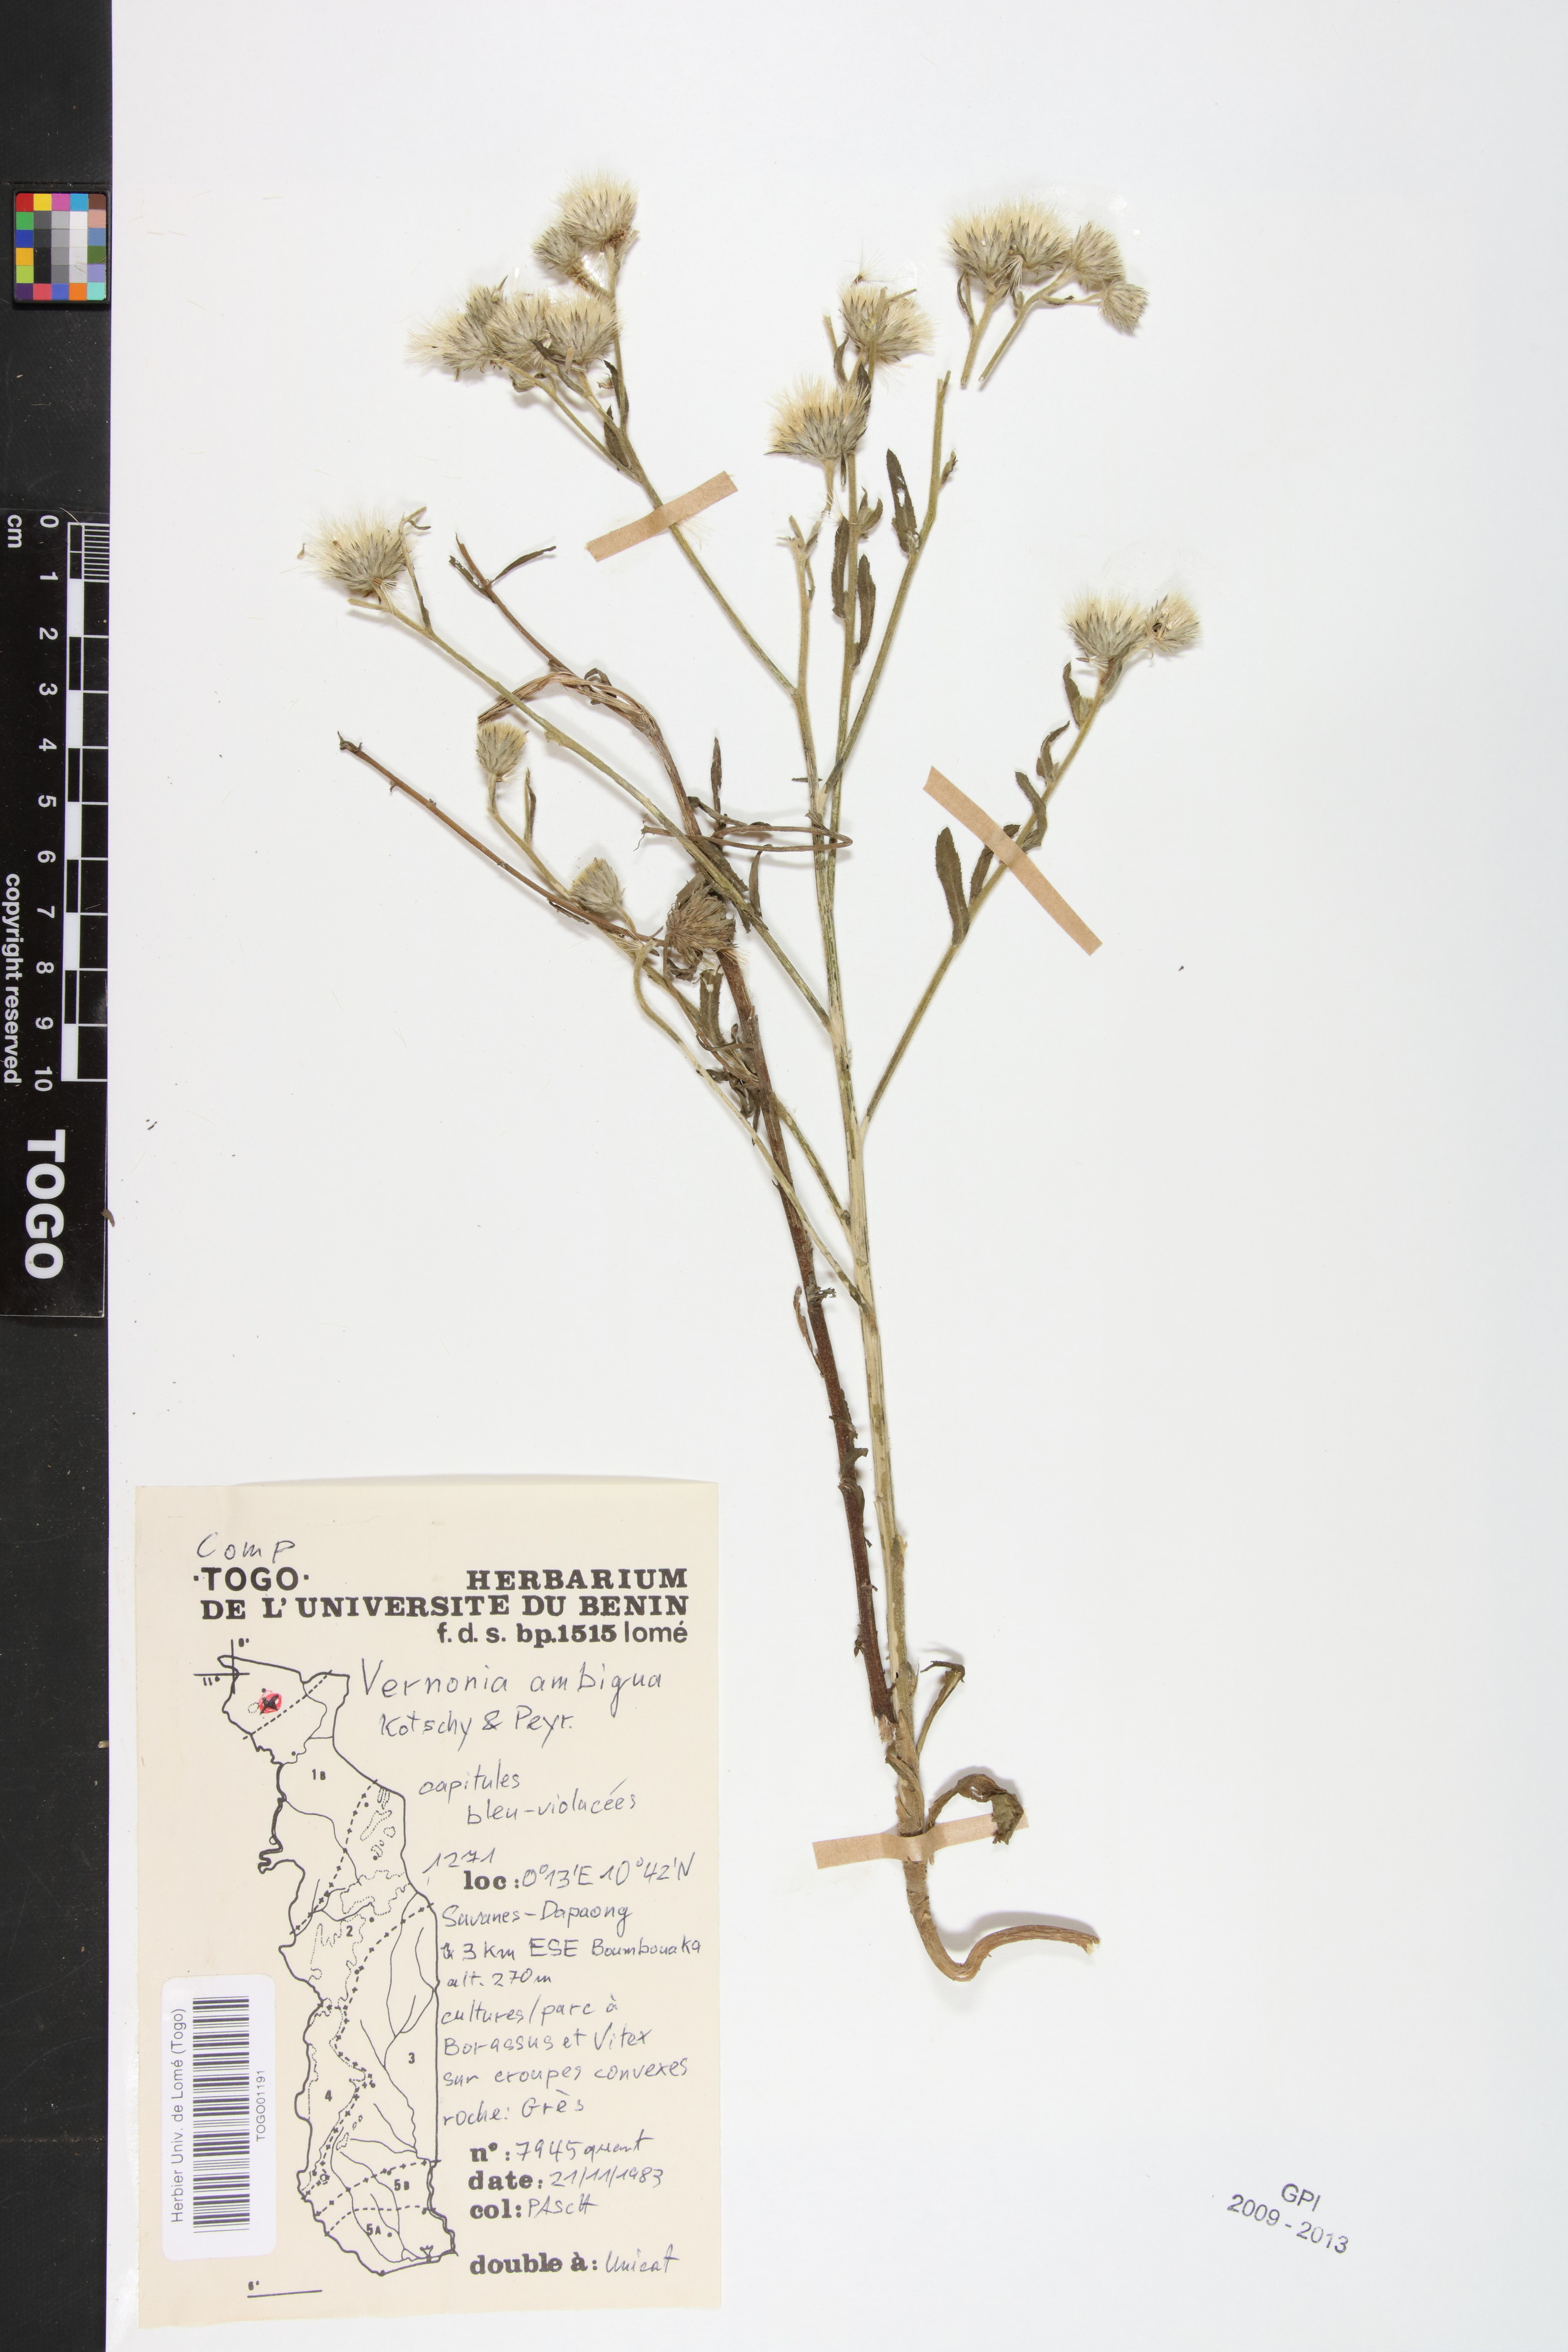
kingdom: Plantae
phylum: Tracheophyta
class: Magnoliopsida
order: Asterales
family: Asteraceae
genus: Vernoniastrum
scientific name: Vernoniastrum ambiguum
